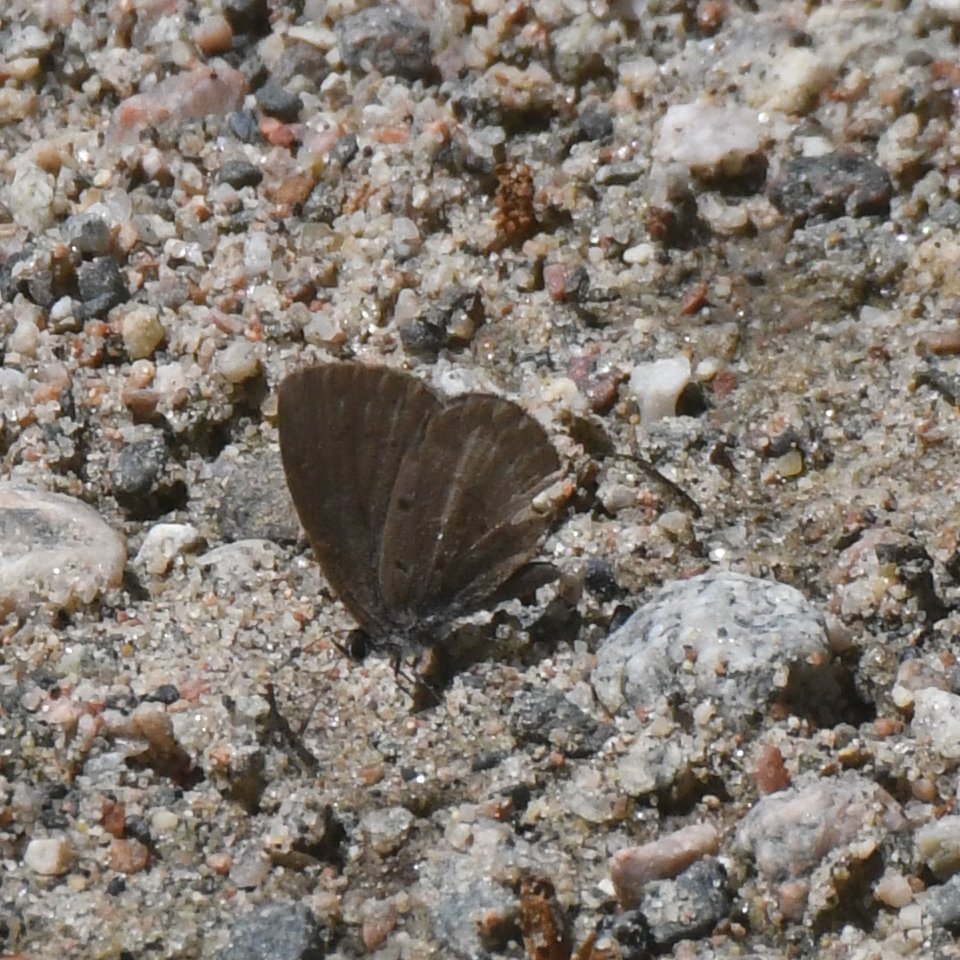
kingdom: Animalia
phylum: Arthropoda
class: Insecta
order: Lepidoptera
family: Lycaenidae
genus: Celastrina
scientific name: Celastrina lucia
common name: Northern Spring Azure
